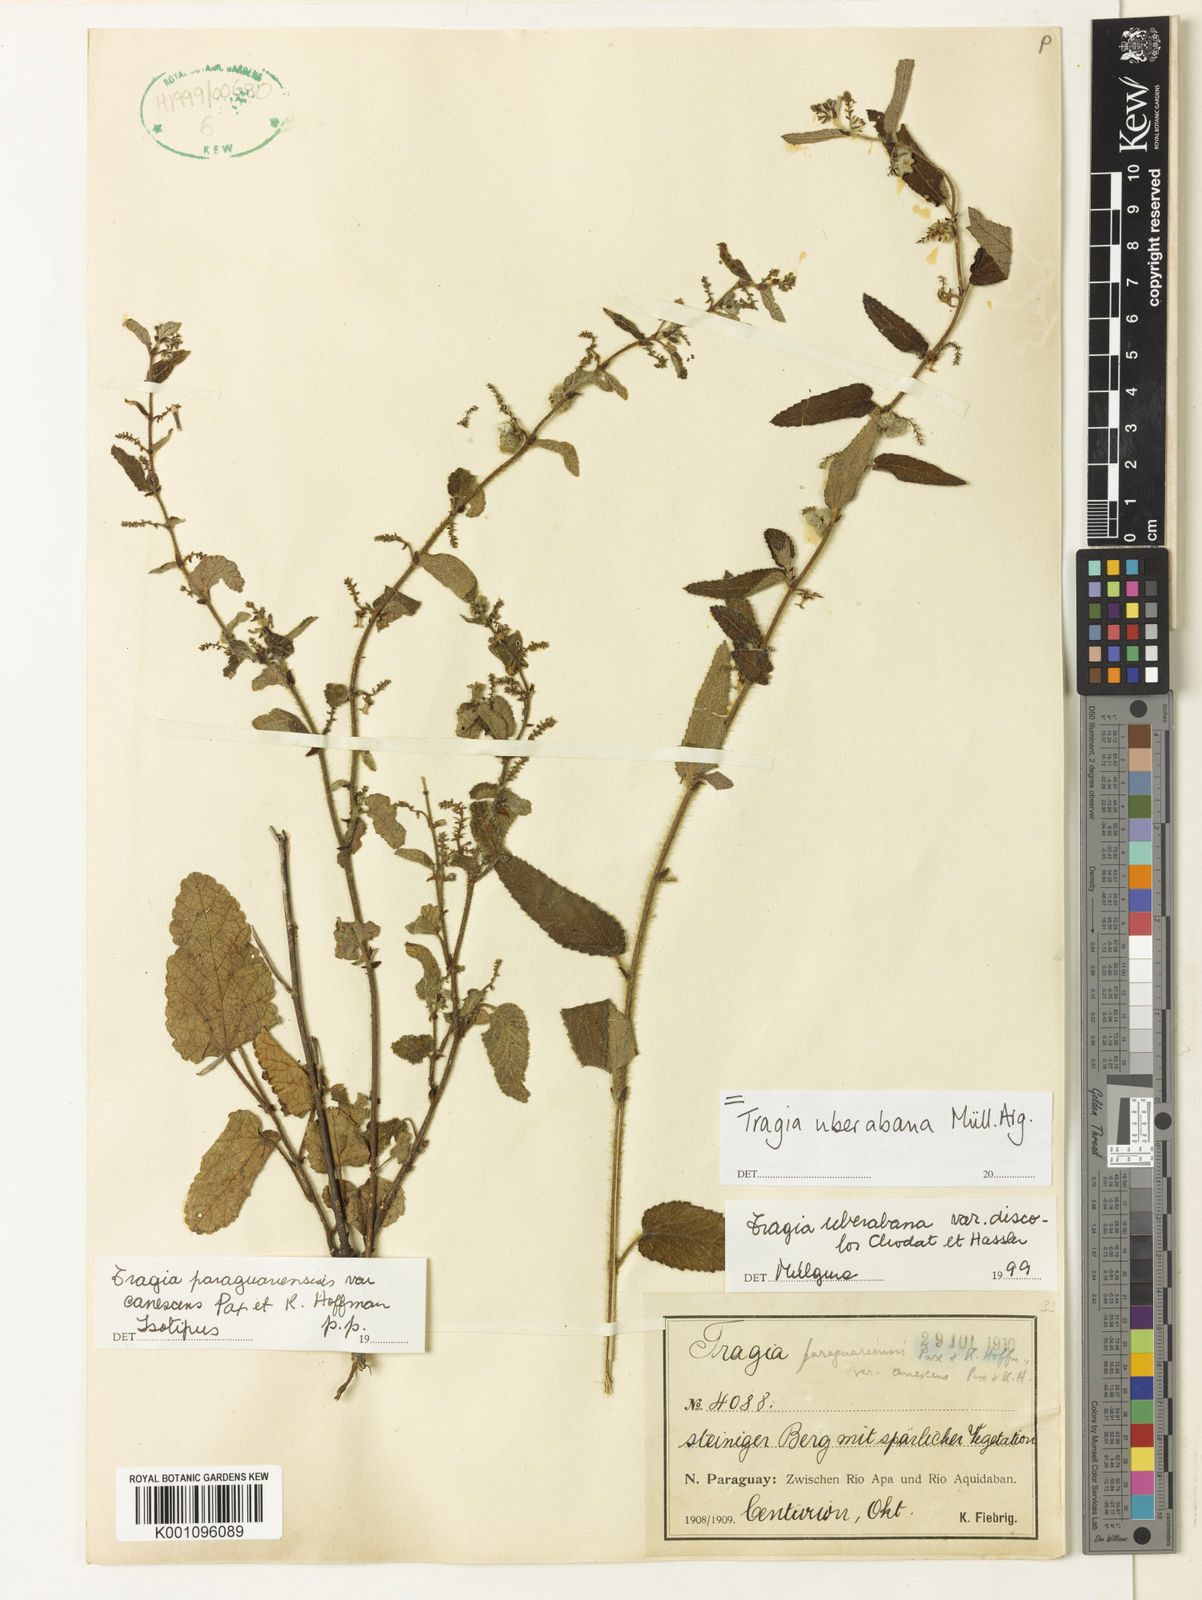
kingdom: Plantae
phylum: Tracheophyta
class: Magnoliopsida
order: Malpighiales
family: Euphorbiaceae
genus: Tragia
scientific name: Tragia
